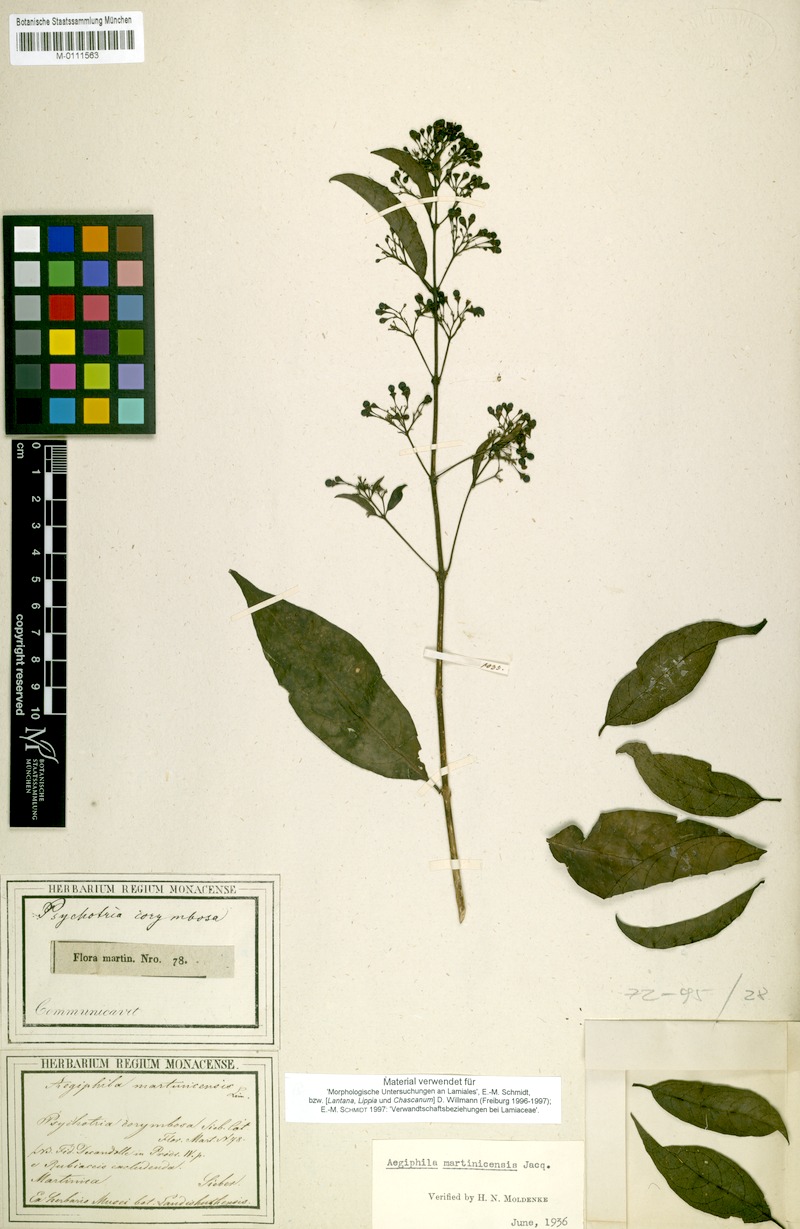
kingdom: Plantae
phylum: Tracheophyta
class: Magnoliopsida
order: Lamiales
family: Lamiaceae
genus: Aegiphila
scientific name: Aegiphila martinicensis
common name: Bastard whiteroot
